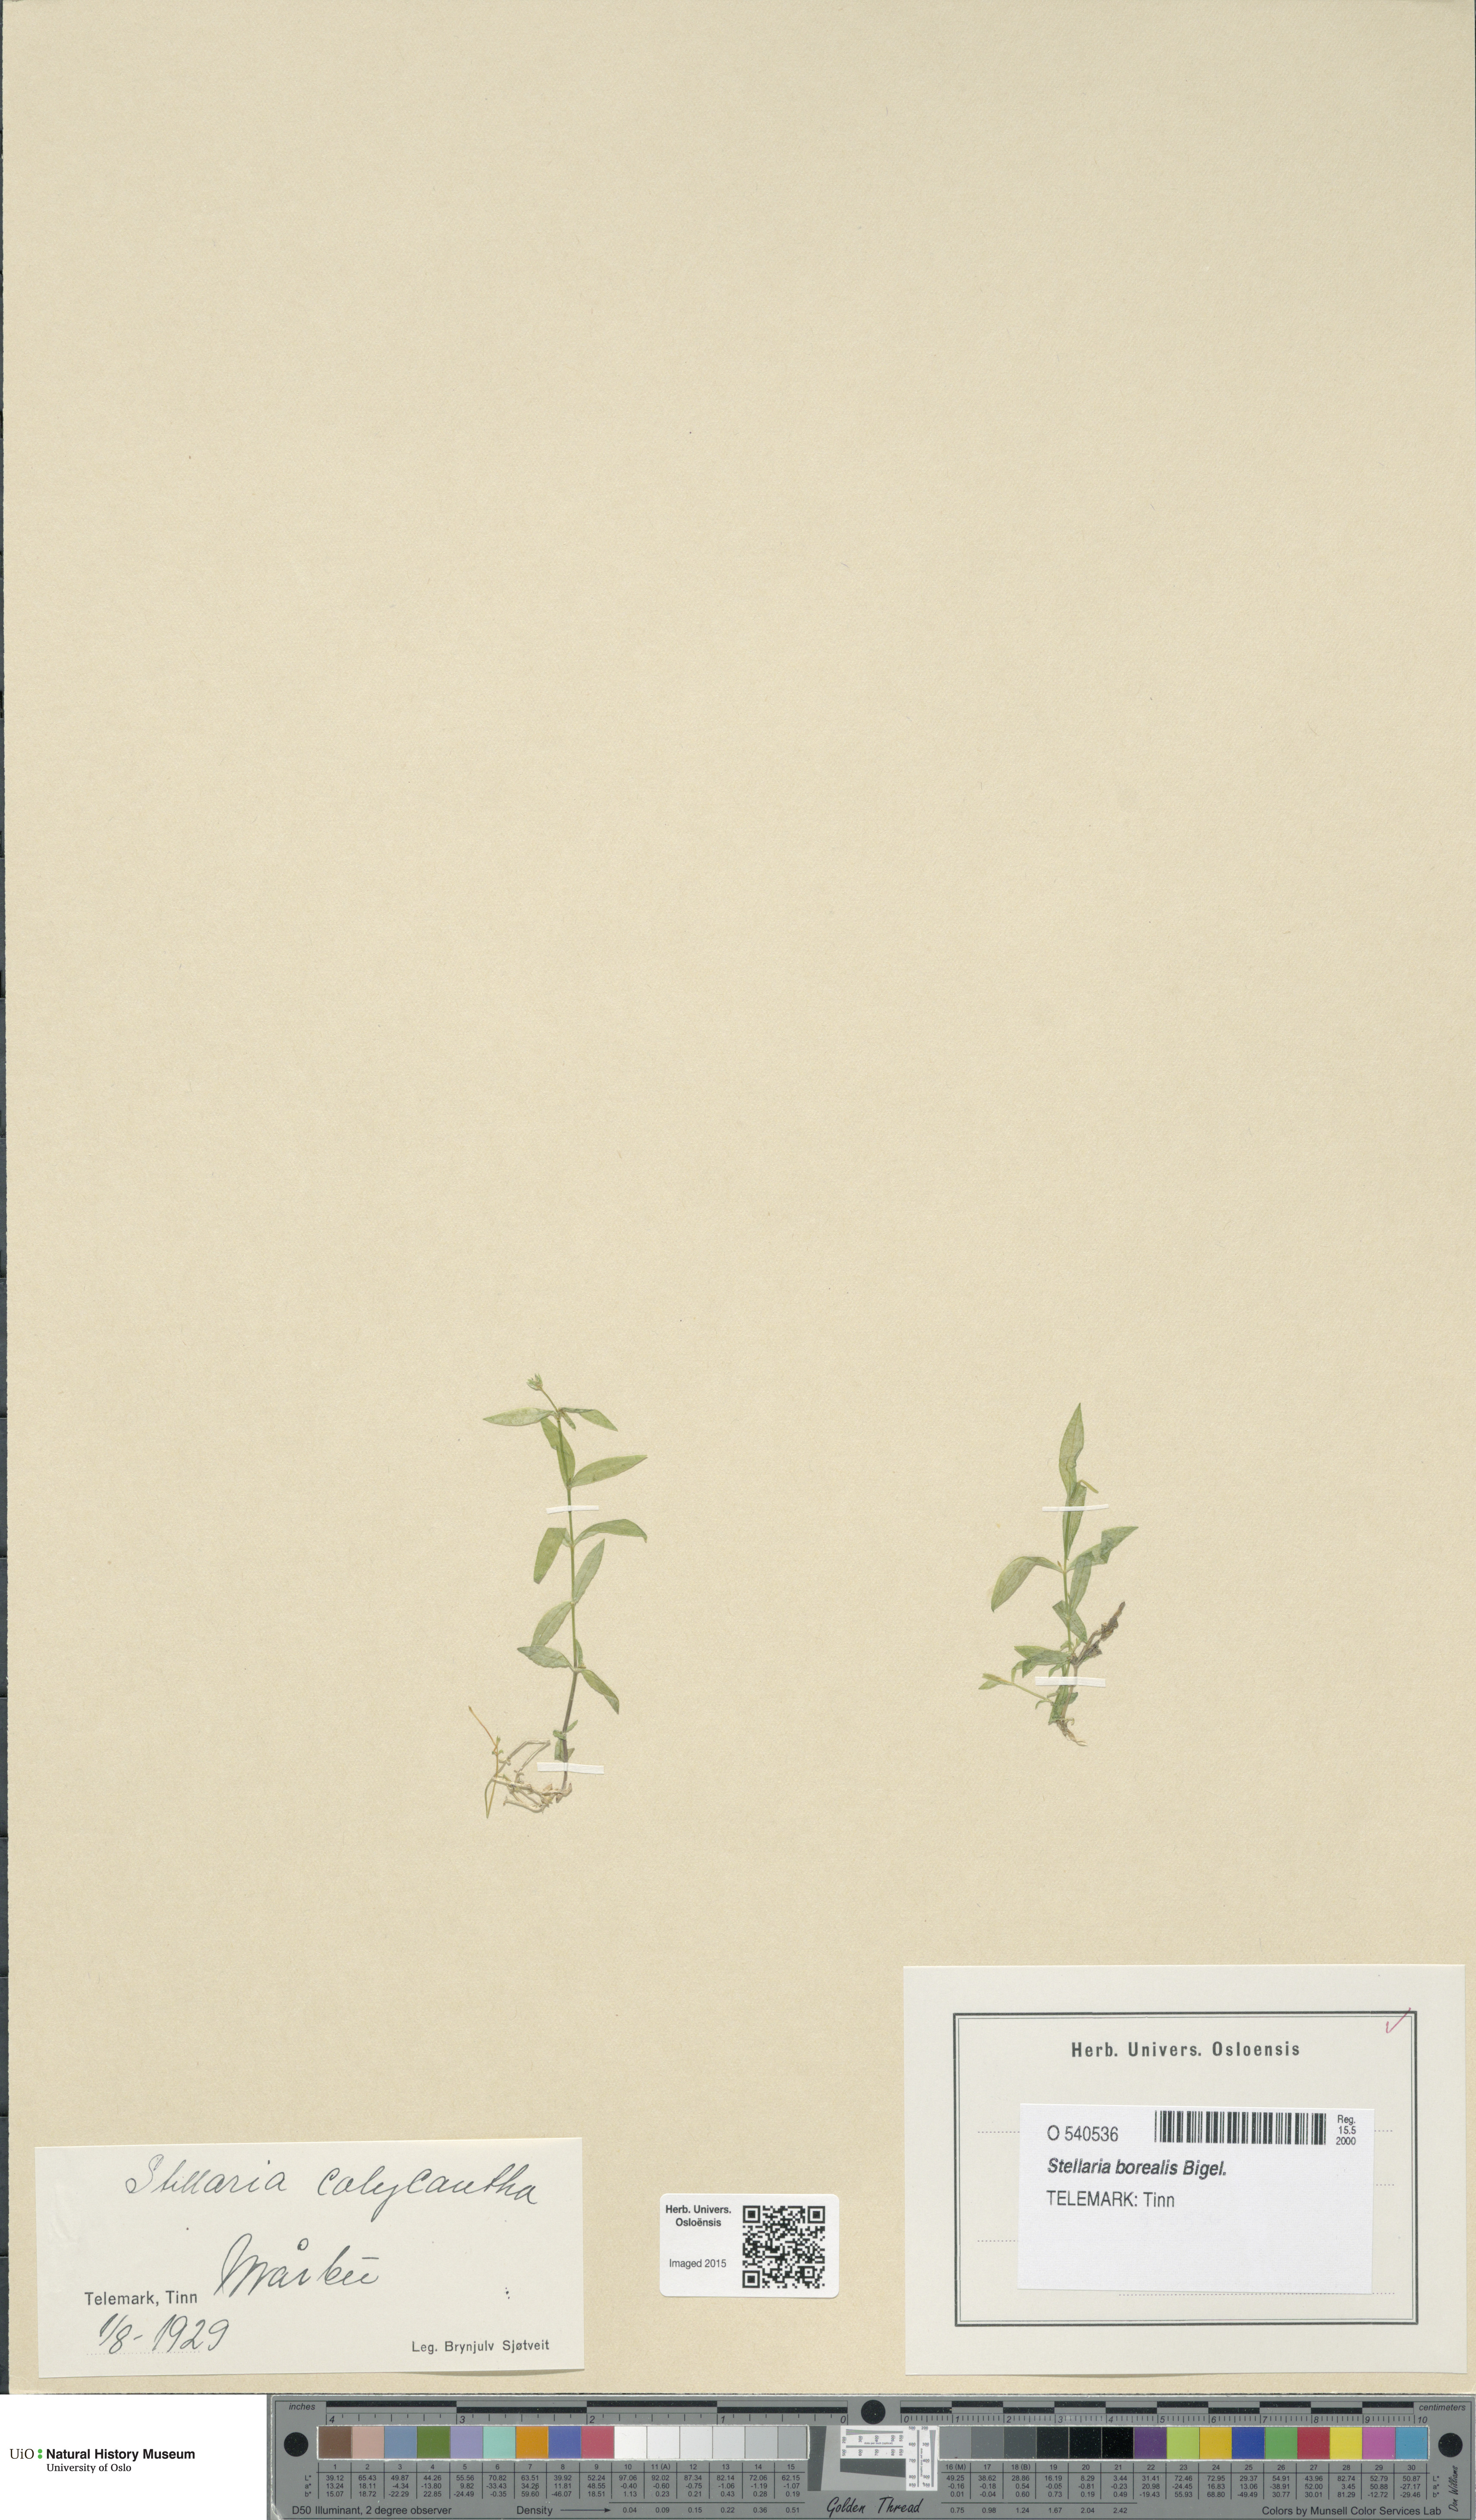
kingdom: Plantae
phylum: Tracheophyta
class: Magnoliopsida
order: Caryophyllales
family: Caryophyllaceae
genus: Stellaria
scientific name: Stellaria borealis
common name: Boreal starwort
